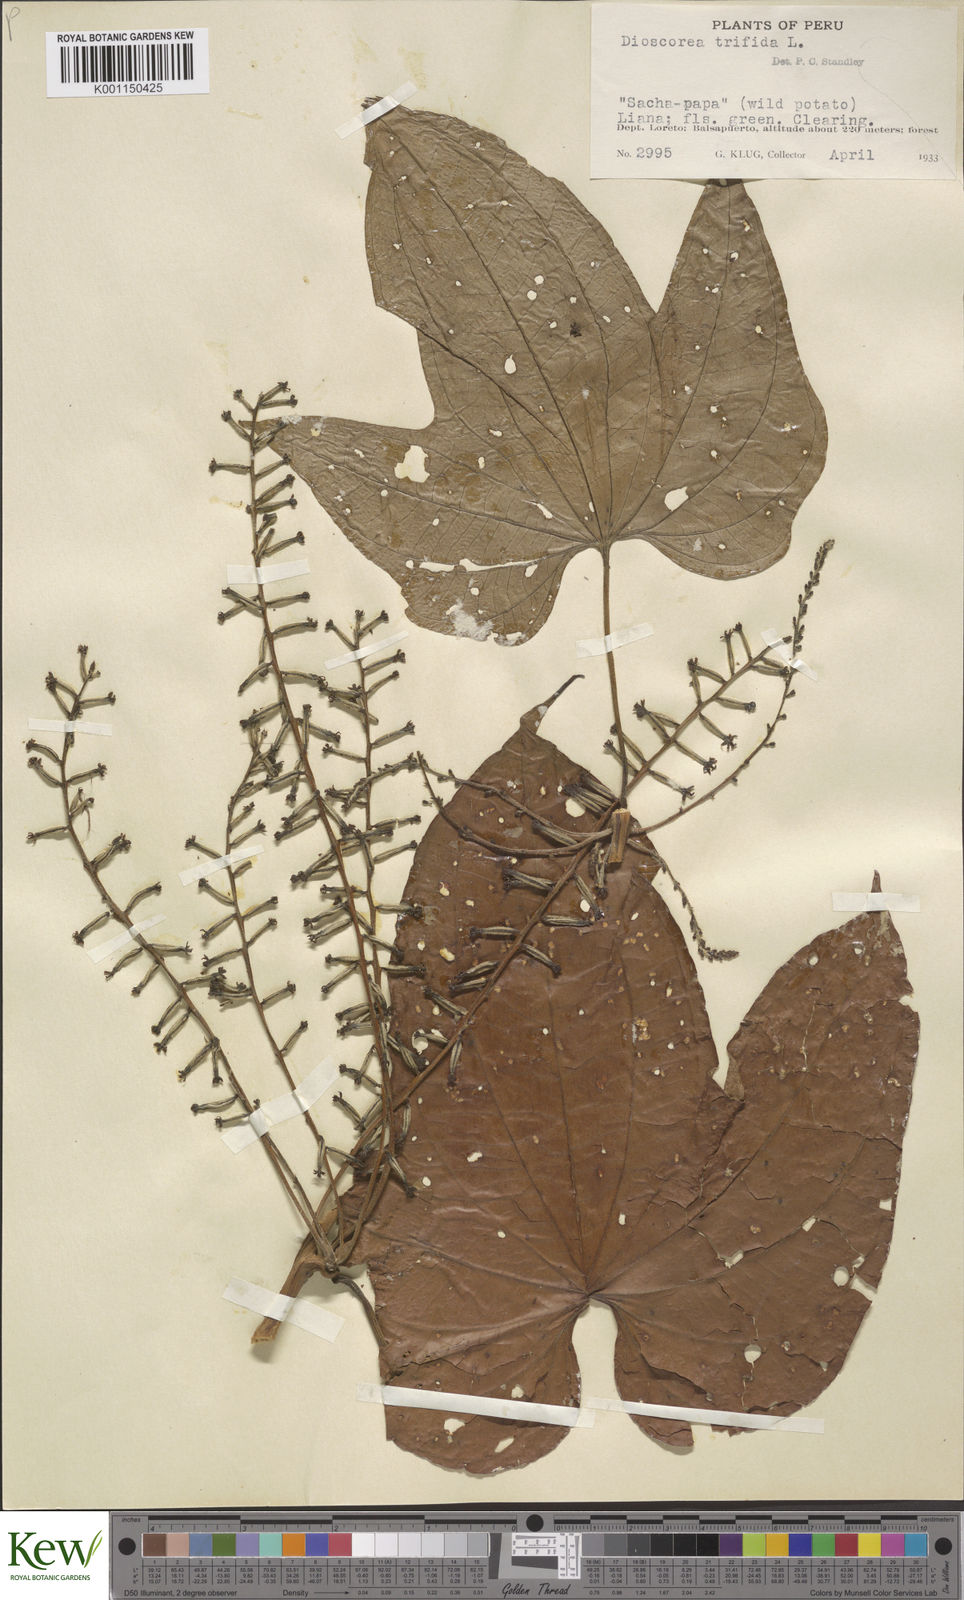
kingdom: Plantae
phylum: Tracheophyta
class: Liliopsida
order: Dioscoreales
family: Dioscoreaceae
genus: Dioscorea
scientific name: Dioscorea trifida
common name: Cush-cush
